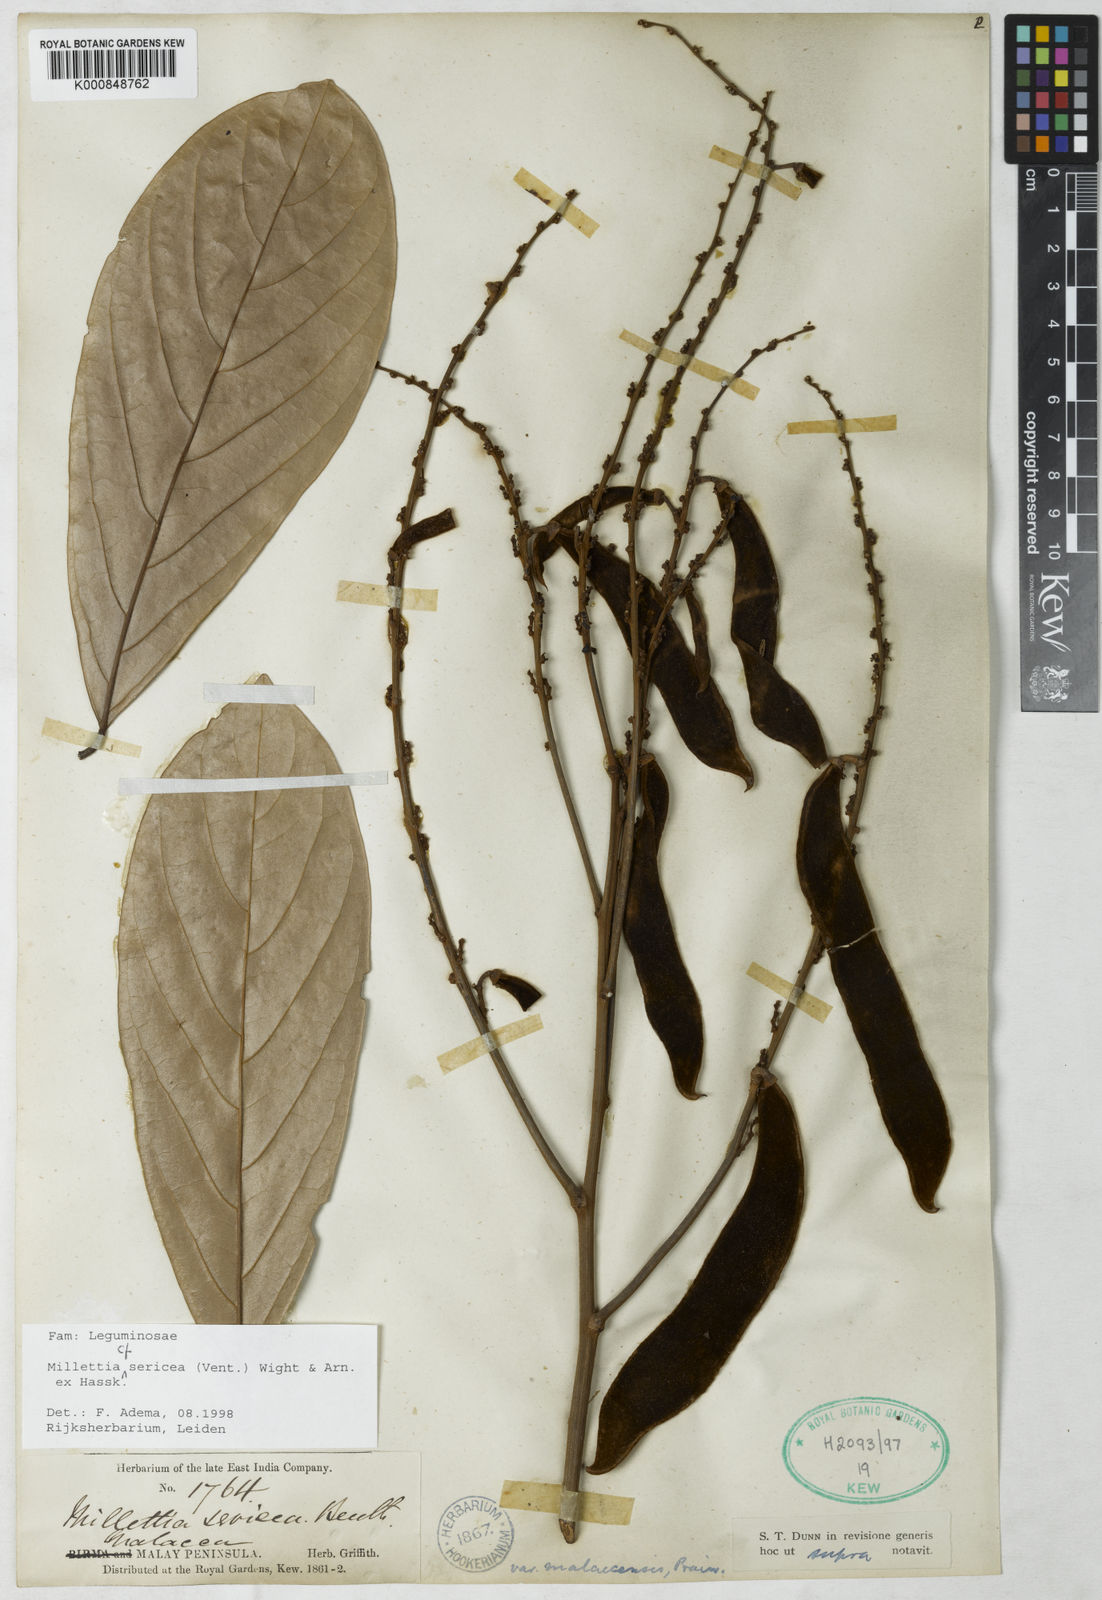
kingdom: Plantae
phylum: Tracheophyta
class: Magnoliopsida
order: Fabales
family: Fabaceae
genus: Millettia
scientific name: Millettia
